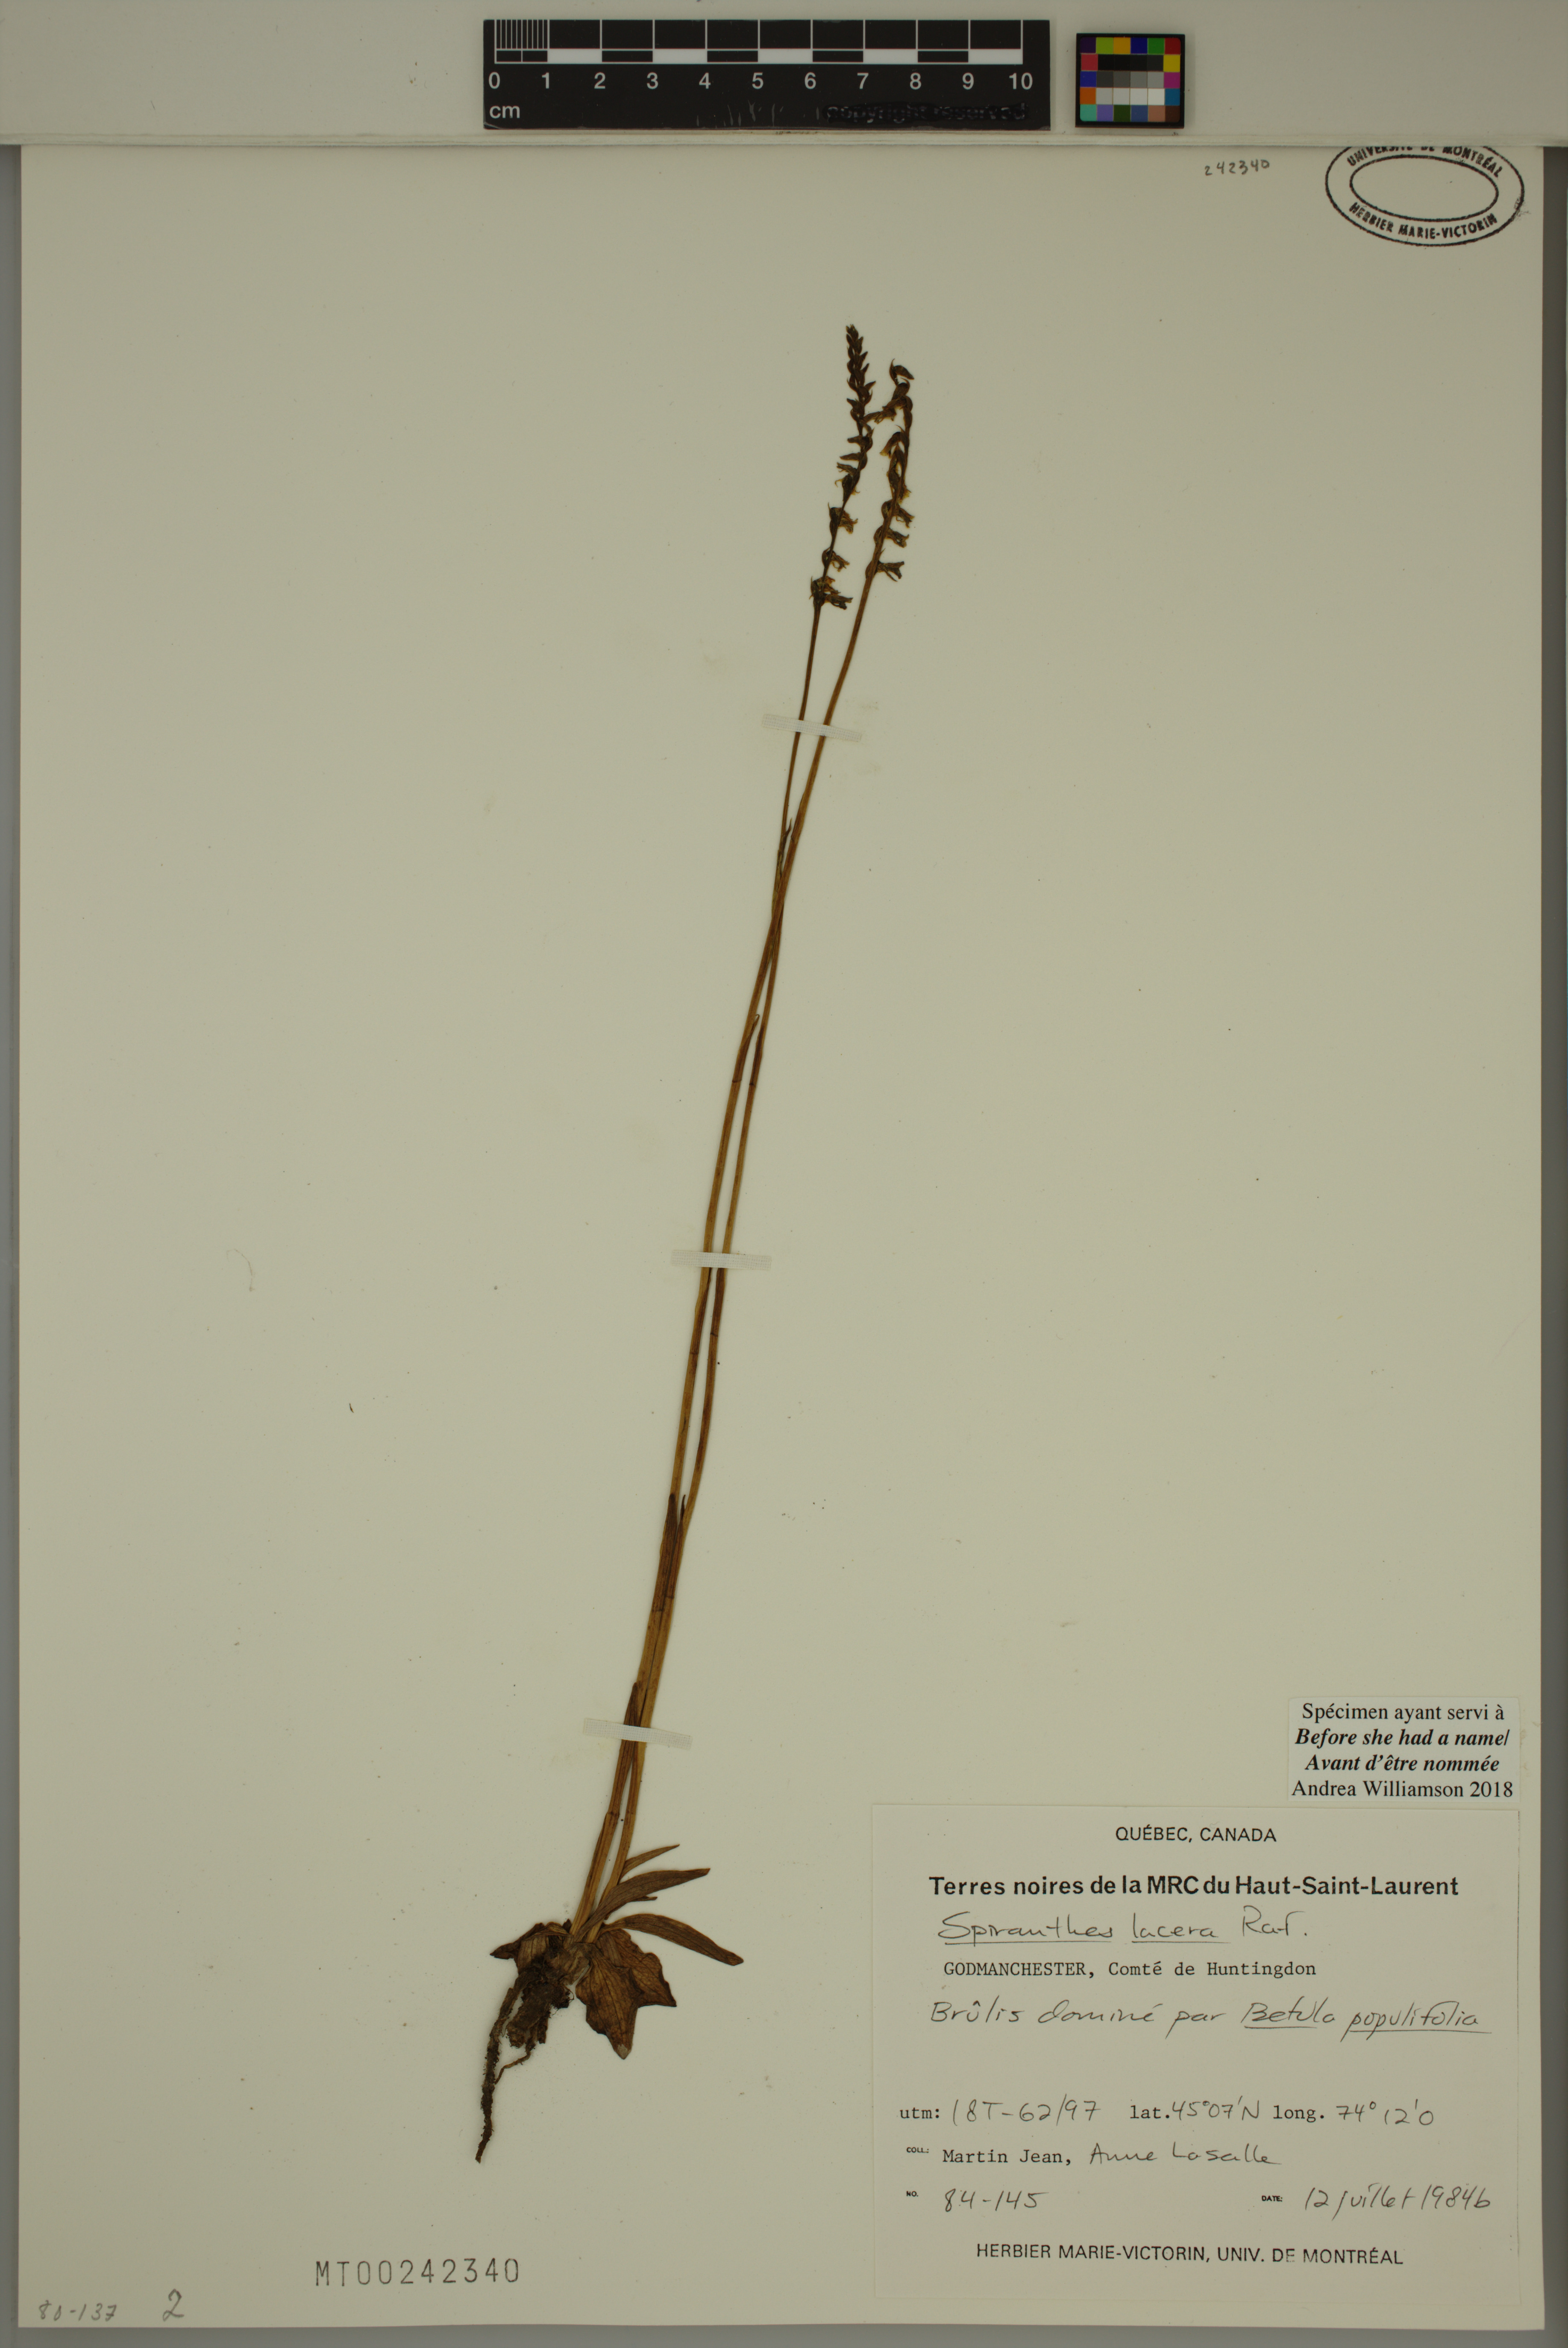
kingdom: Plantae
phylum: Tracheophyta
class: Liliopsida
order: Asparagales
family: Orchidaceae
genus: Spiranthes
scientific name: Spiranthes lacera
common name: Northern slender ladies'-tresses
